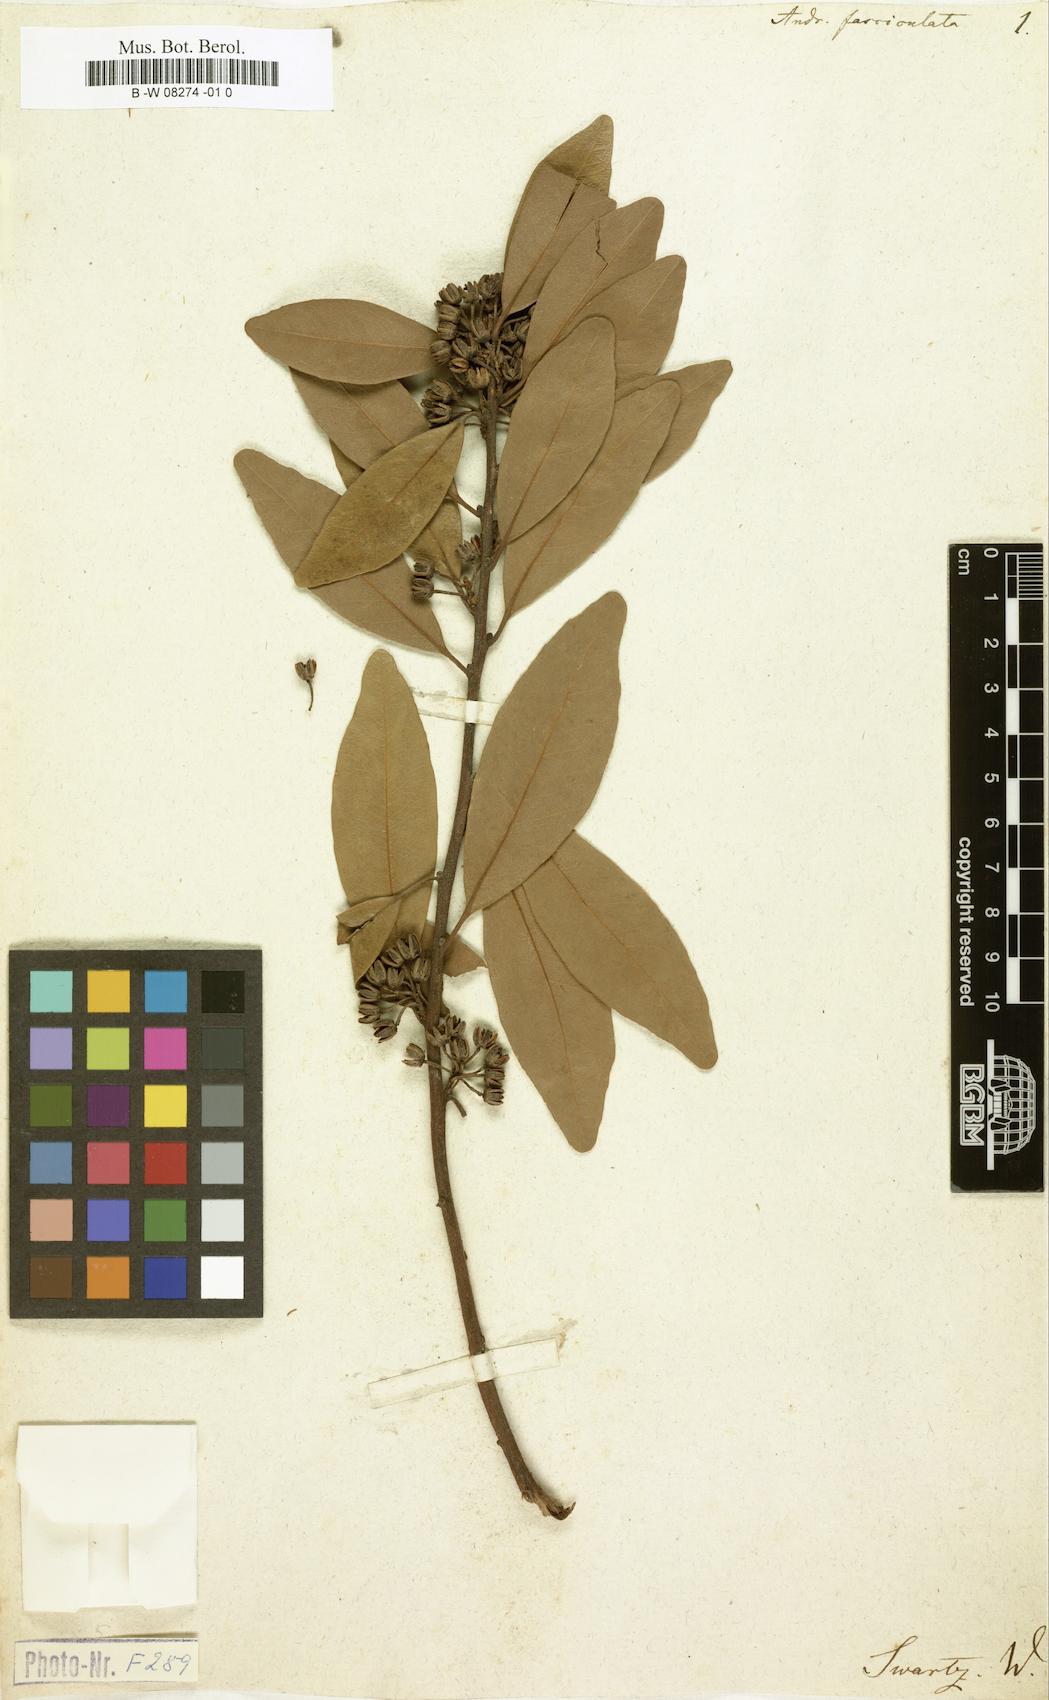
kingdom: Plantae
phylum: Tracheophyta
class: Magnoliopsida
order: Ericales
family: Ericaceae
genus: Lyonia
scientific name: Lyonia jamaicensis
